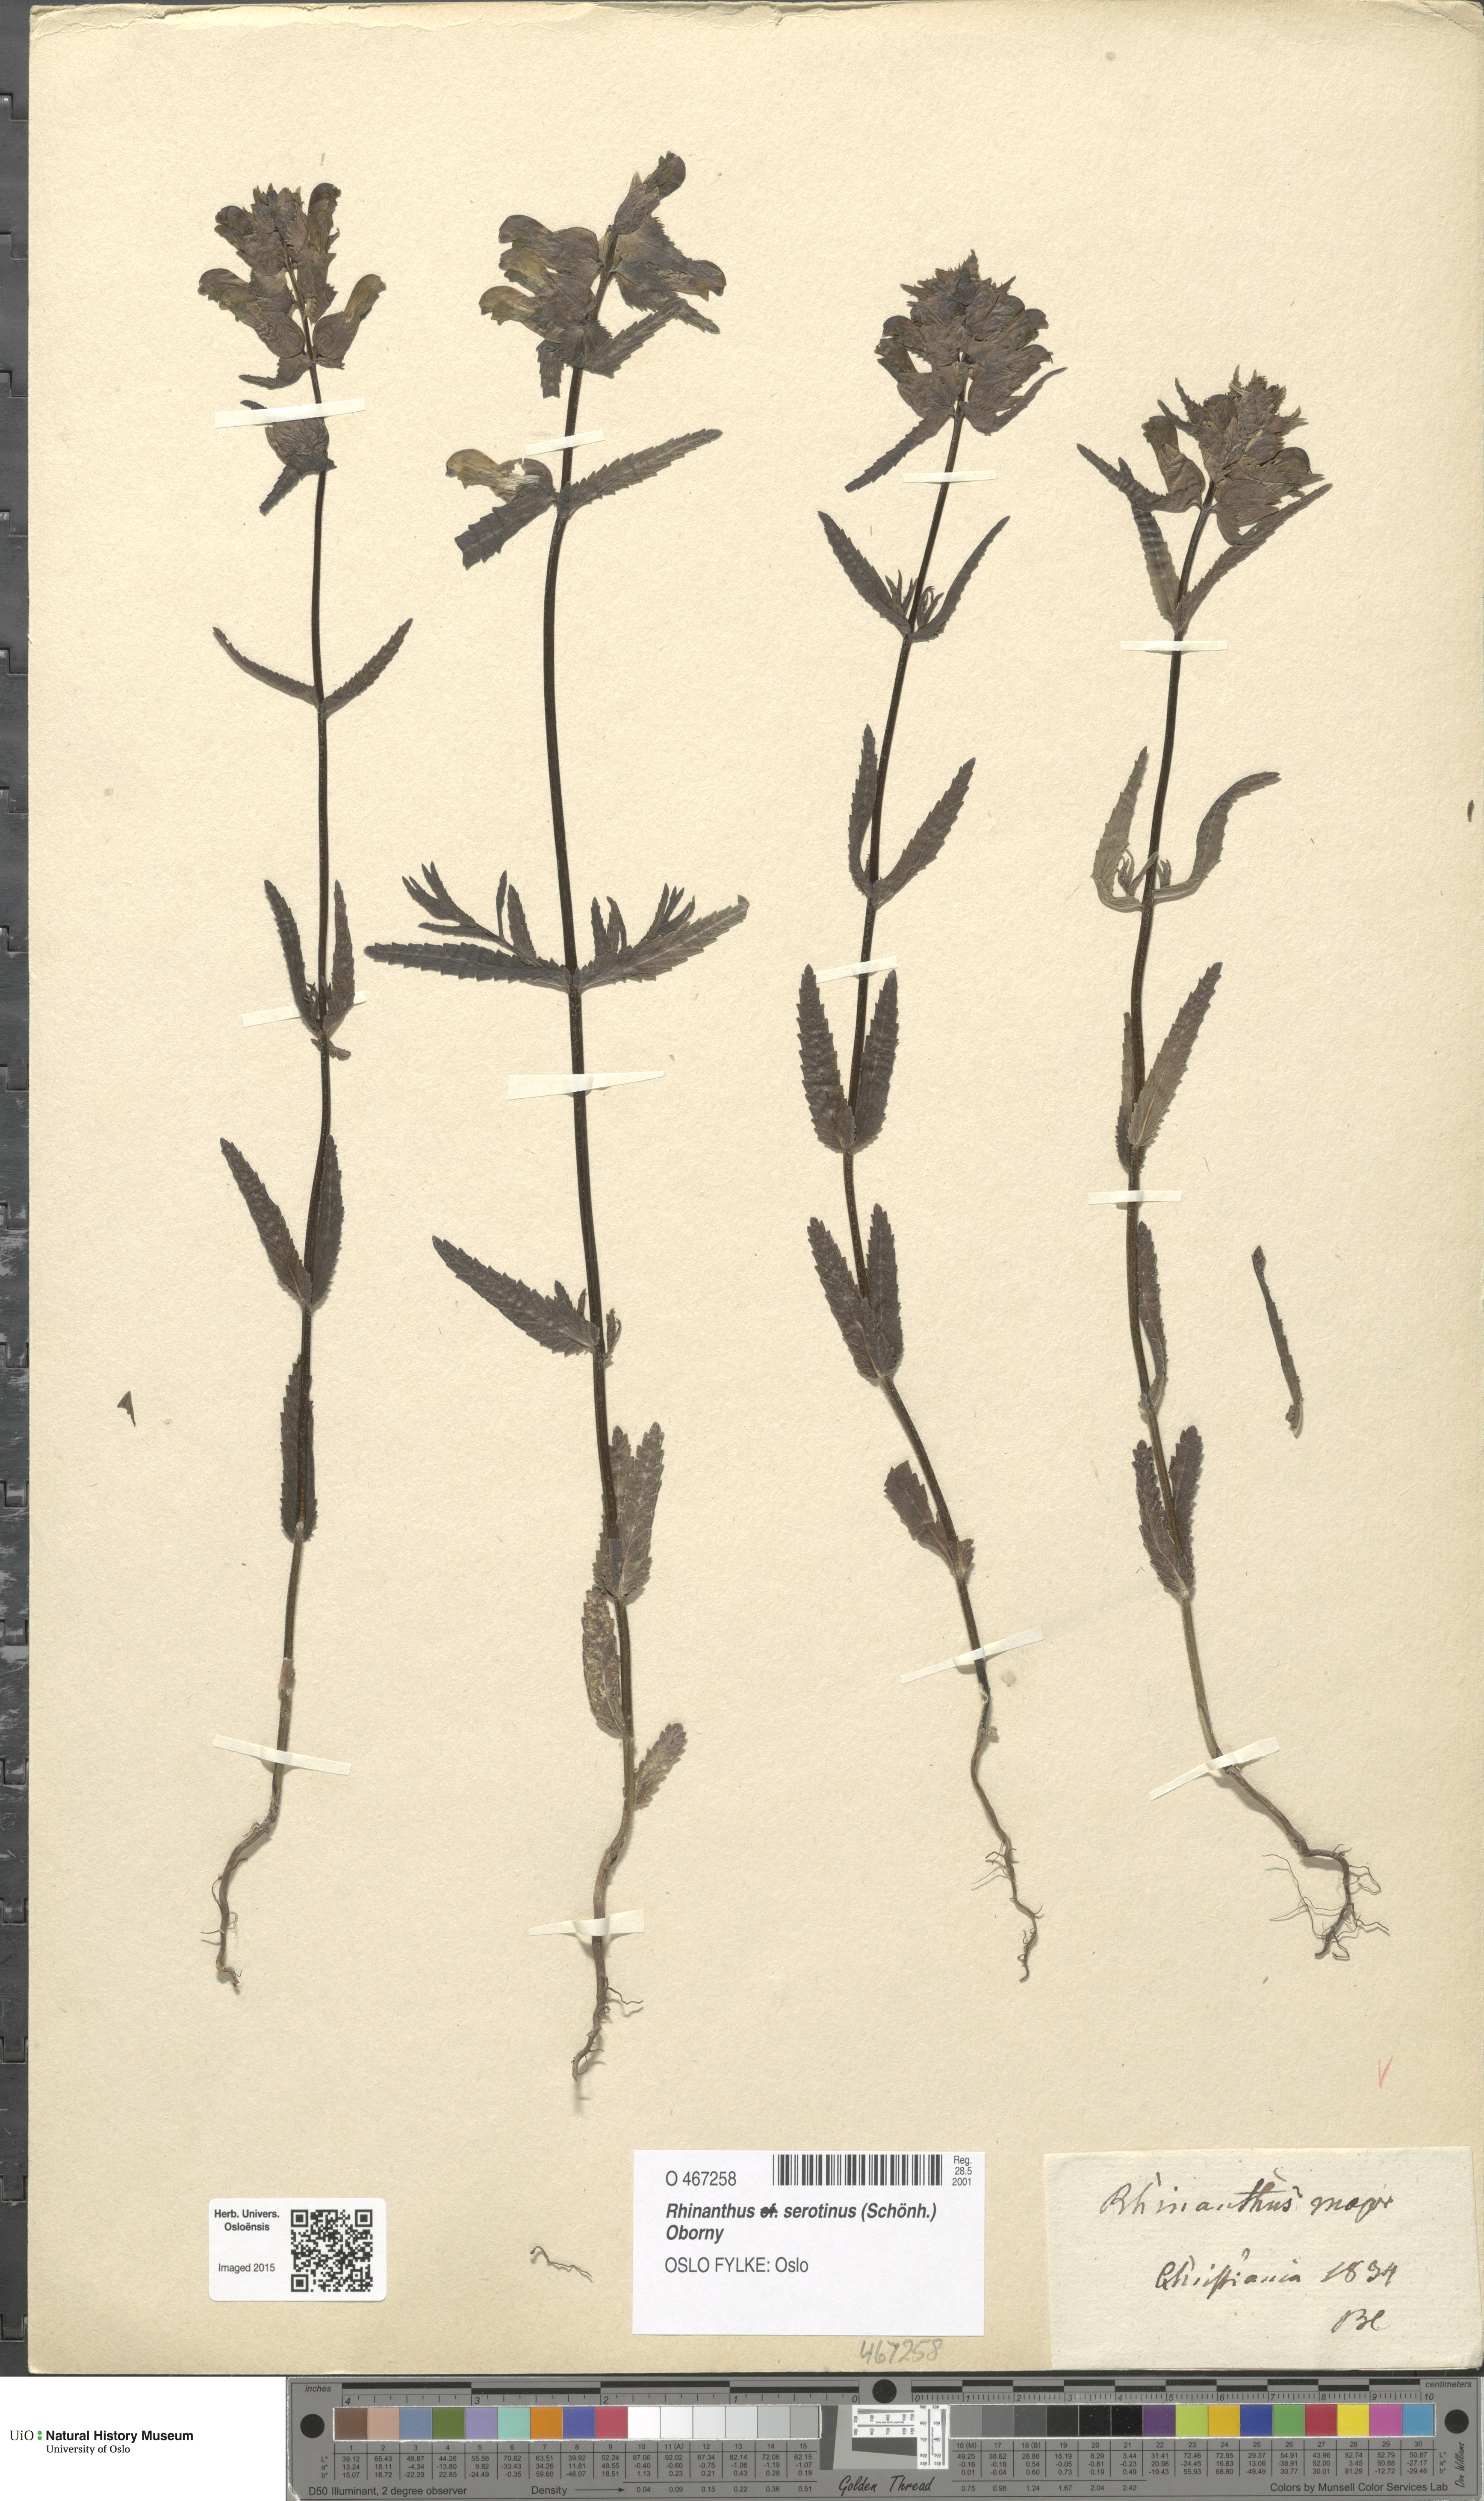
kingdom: Plantae
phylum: Tracheophyta
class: Magnoliopsida
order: Lamiales
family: Orobanchaceae
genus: Rhinanthus
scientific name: Rhinanthus serotinus
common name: Late-flowering yellow rattle
